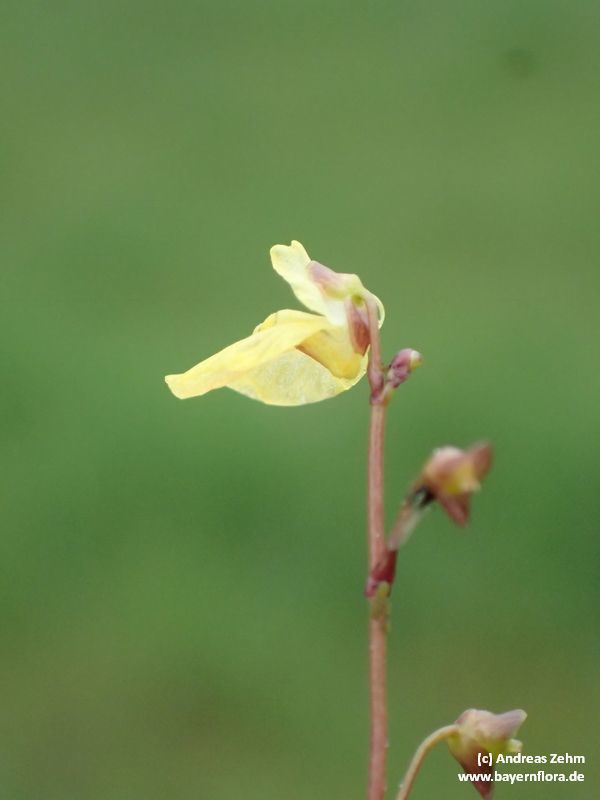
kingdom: Plantae
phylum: Tracheophyta
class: Magnoliopsida
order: Lamiales
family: Lentibulariaceae
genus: Utricularia
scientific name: Utricularia minor
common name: Lesser bladderwort
